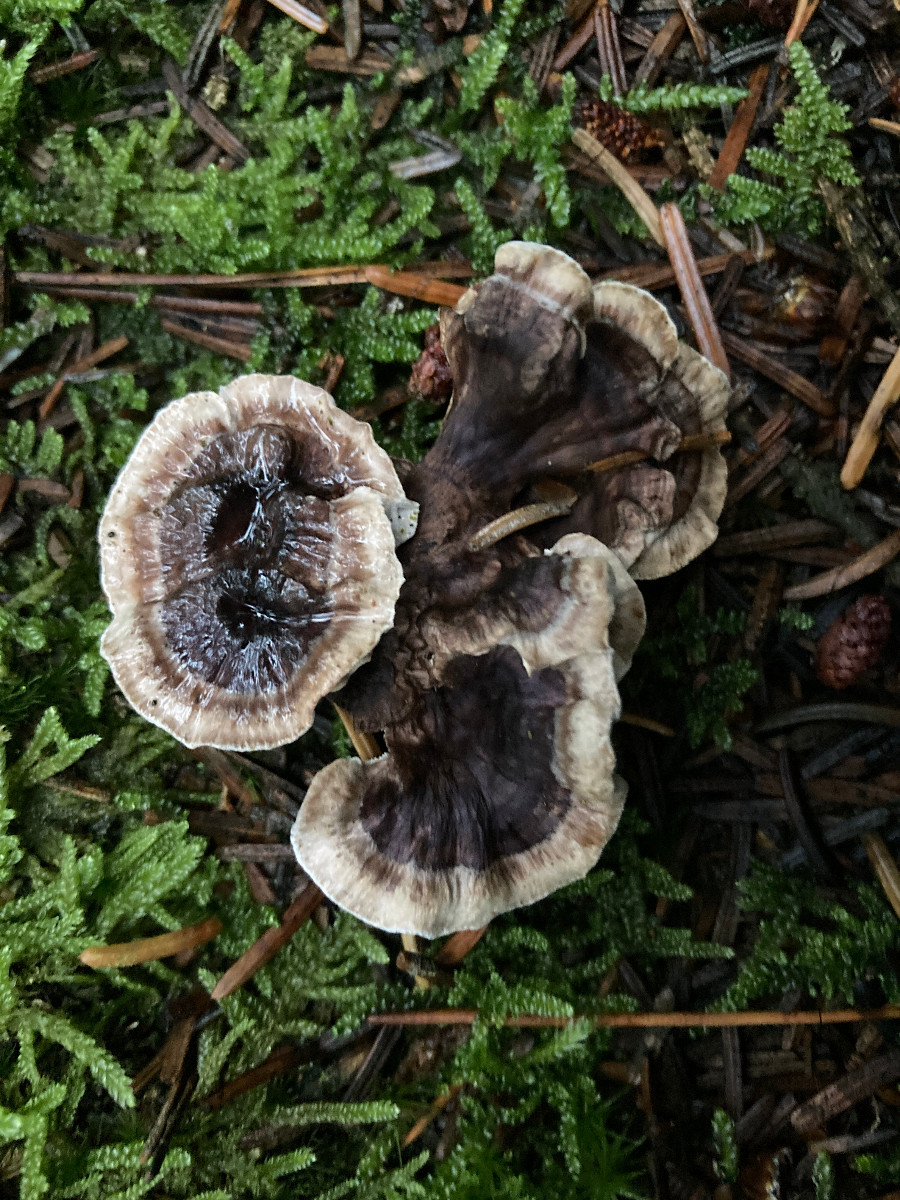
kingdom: Fungi
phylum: Basidiomycota
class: Agaricomycetes
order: Thelephorales
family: Thelephoraceae
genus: Phellodon
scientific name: Phellodon tomentosus
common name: vellugtende duftpigsvamp
